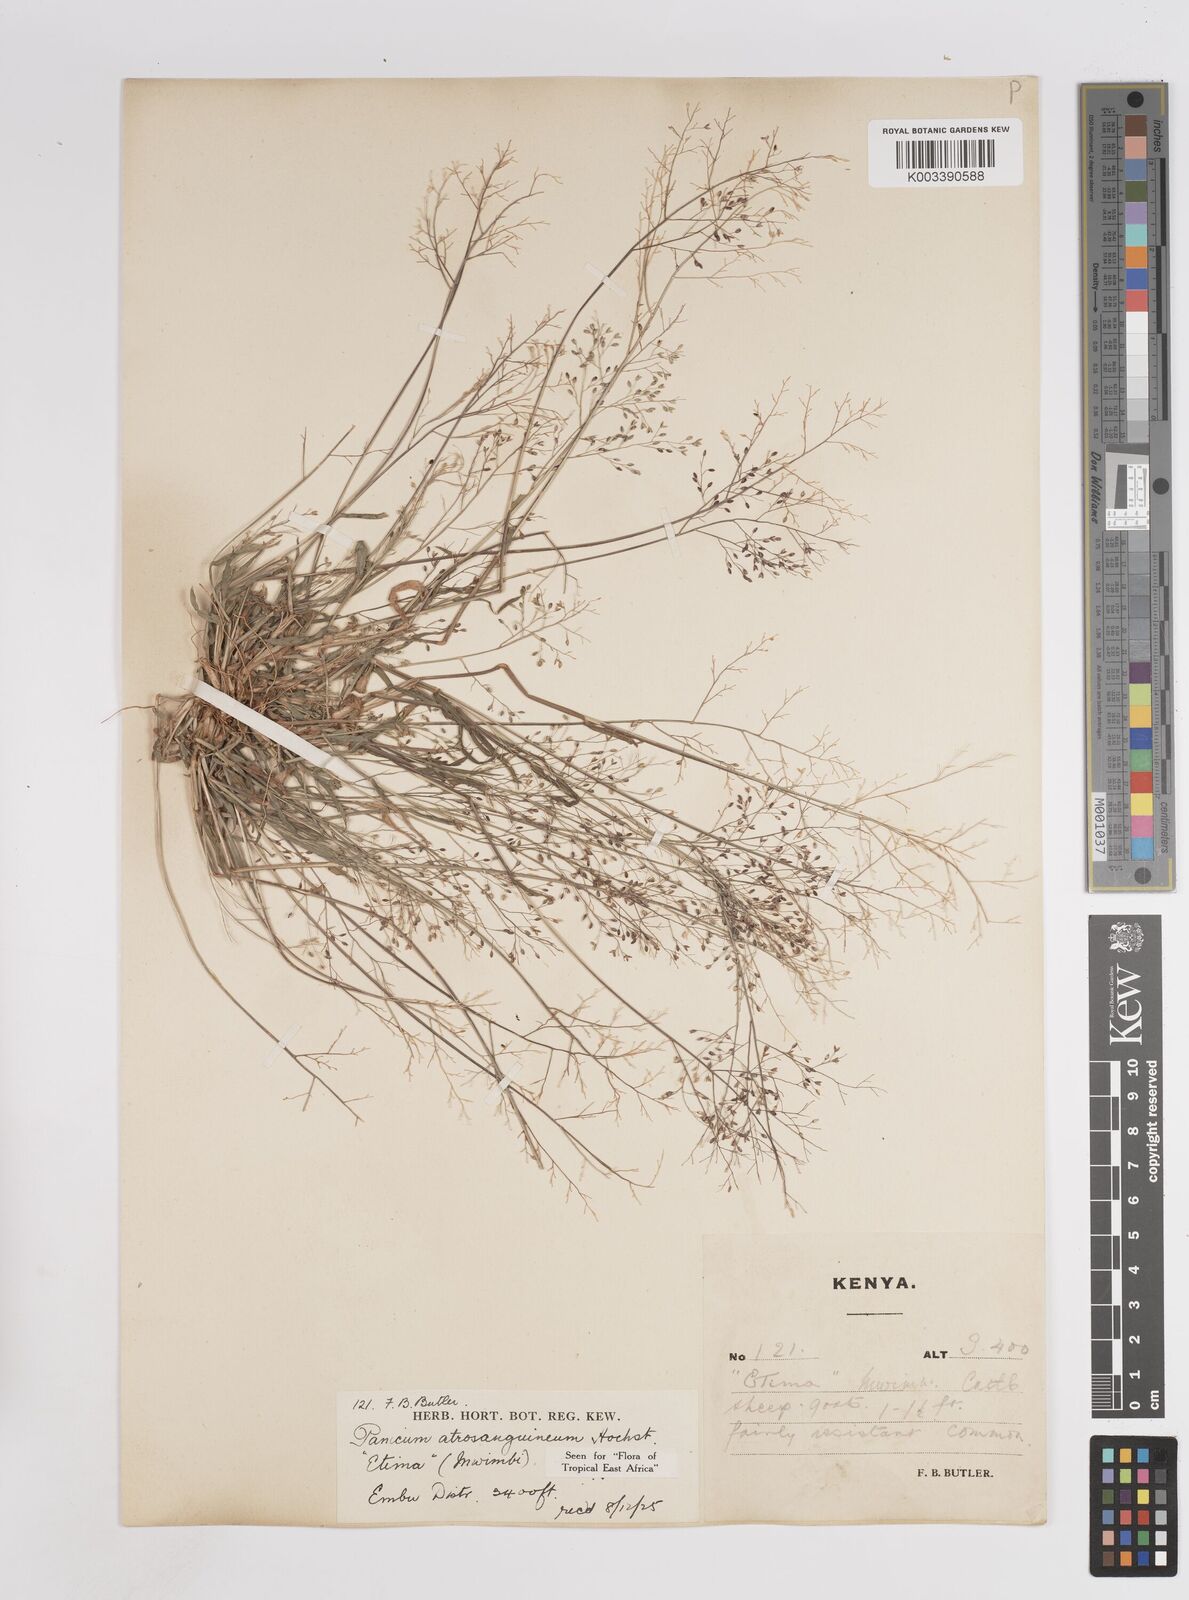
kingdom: Plantae
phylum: Tracheophyta
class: Liliopsida
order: Poales
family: Poaceae
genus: Panicum
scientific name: Panicum atrosanguineum
